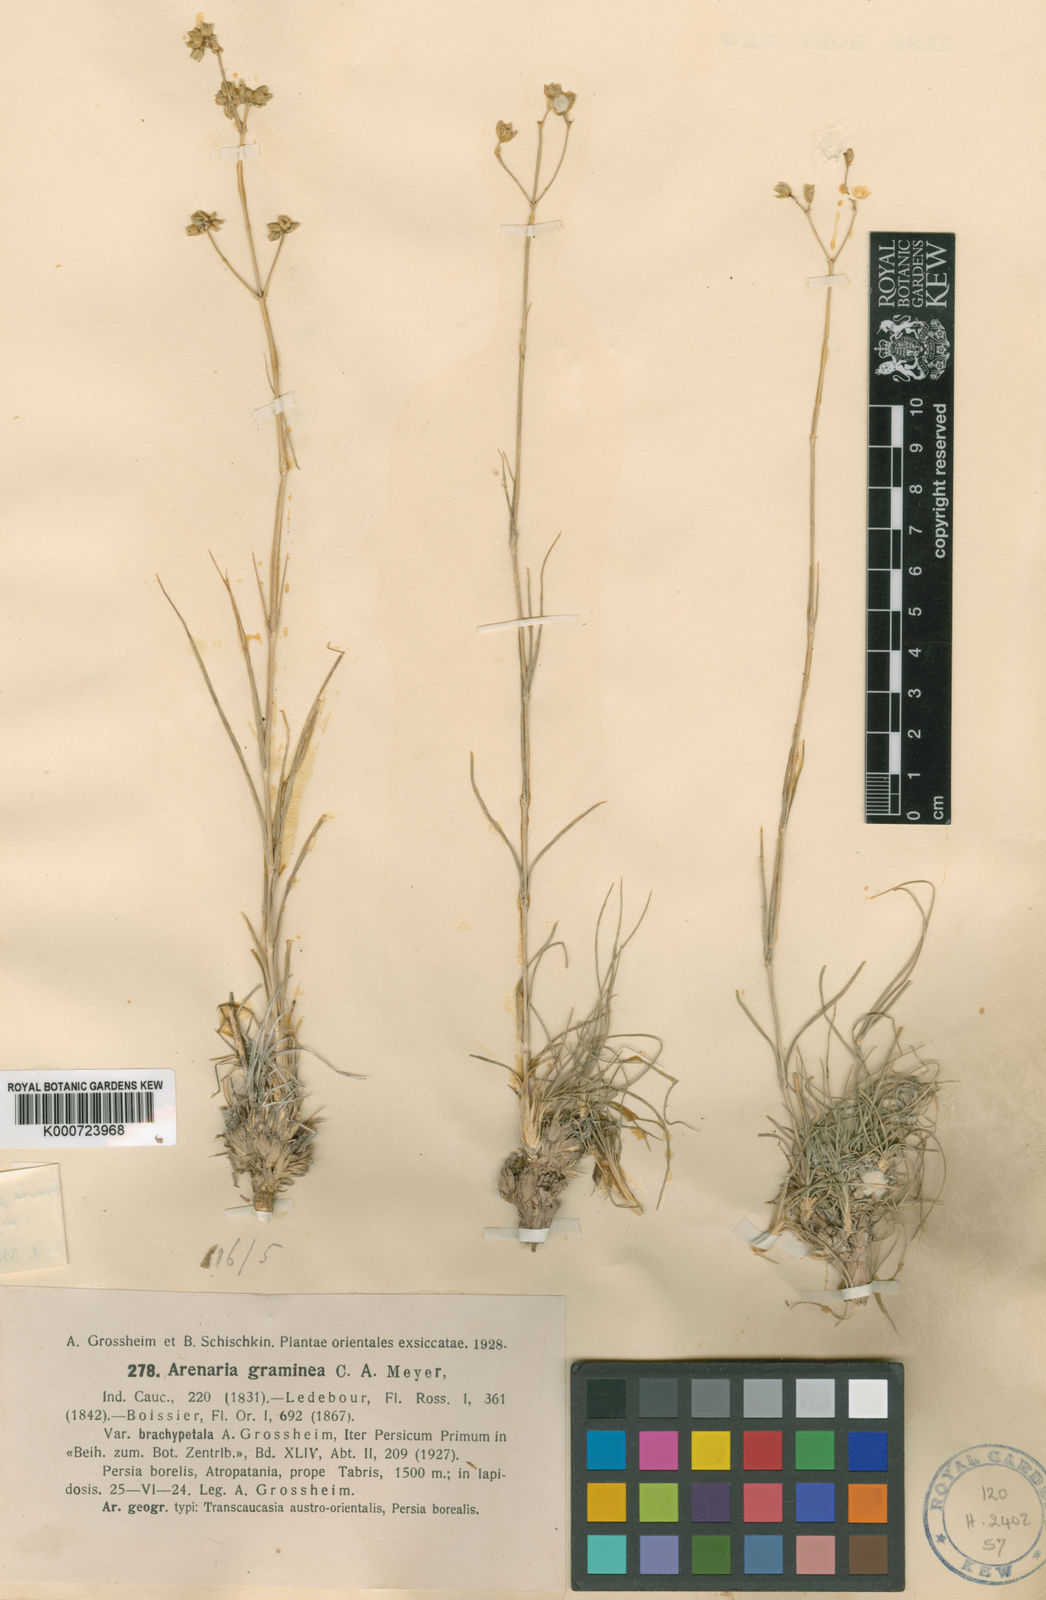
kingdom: Plantae
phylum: Tracheophyta
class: Magnoliopsida
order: Caryophyllales
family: Caryophyllaceae
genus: Eremogone
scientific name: Eremogone graminea
